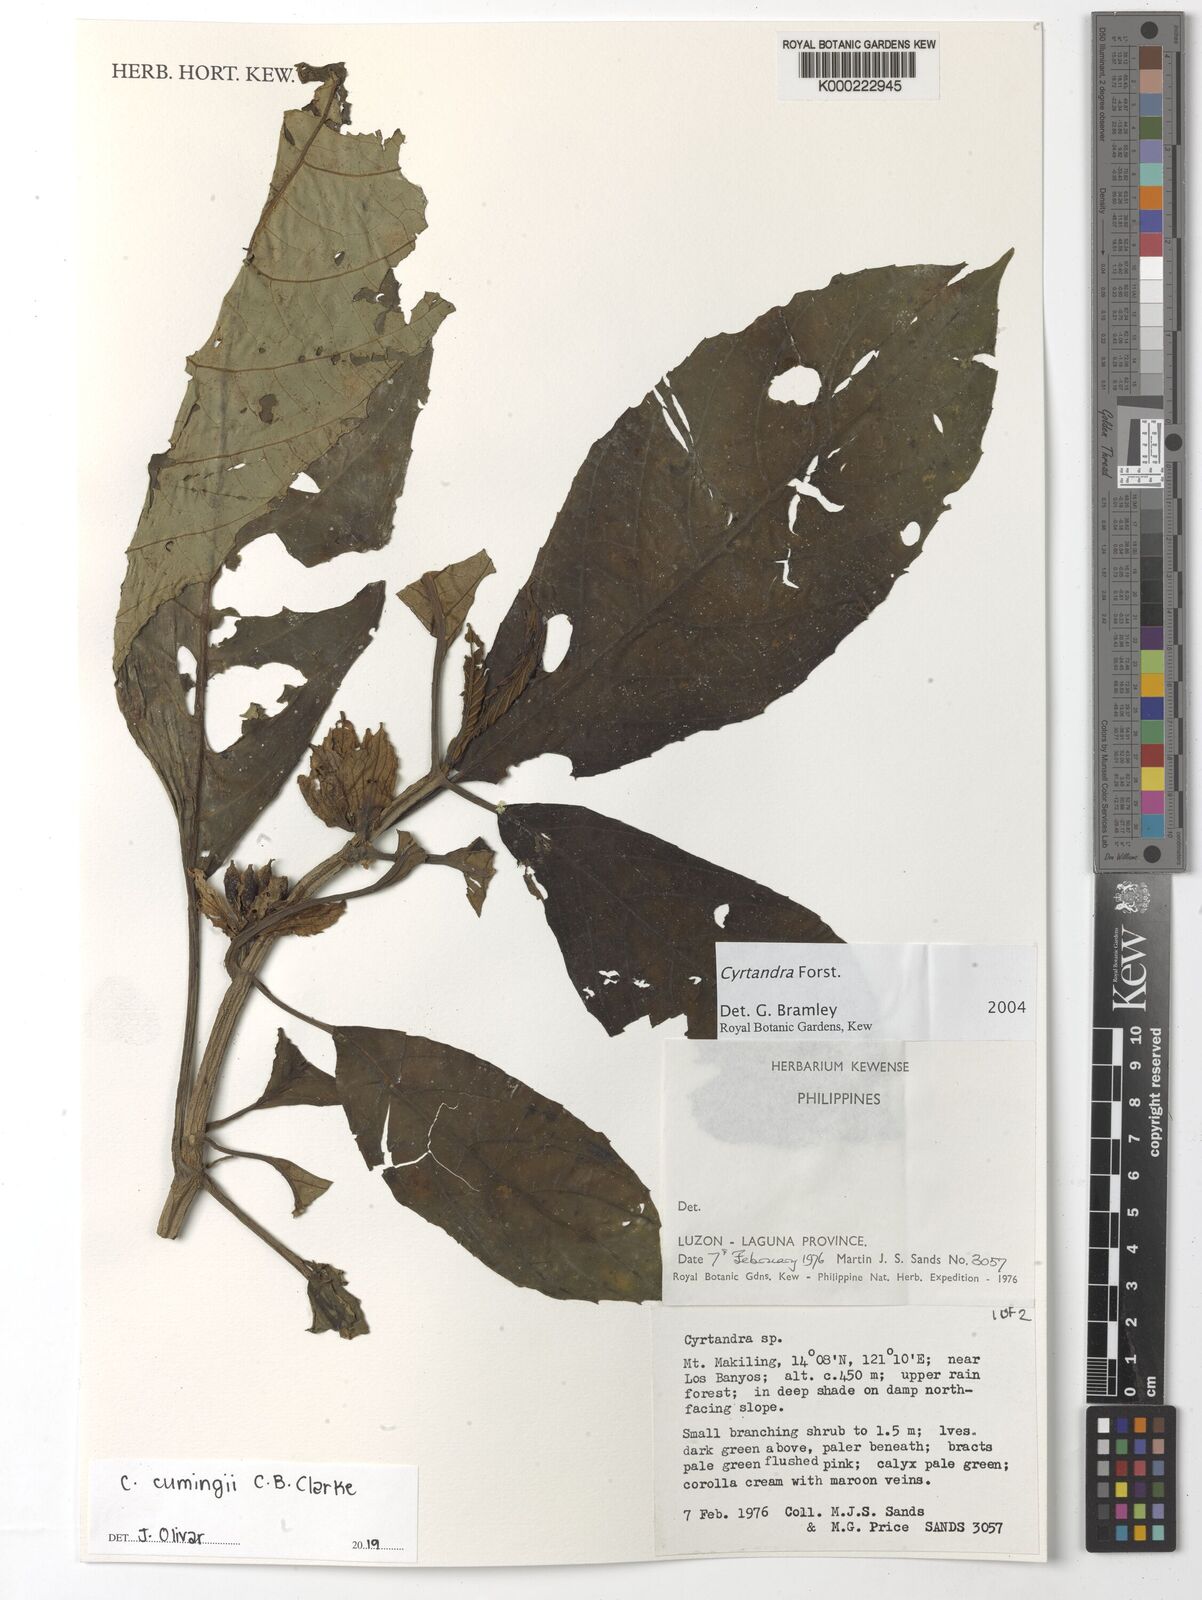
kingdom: Plantae
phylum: Tracheophyta
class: Magnoliopsida
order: Lamiales
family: Gesneriaceae
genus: Cyrtandra
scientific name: Cyrtandra
